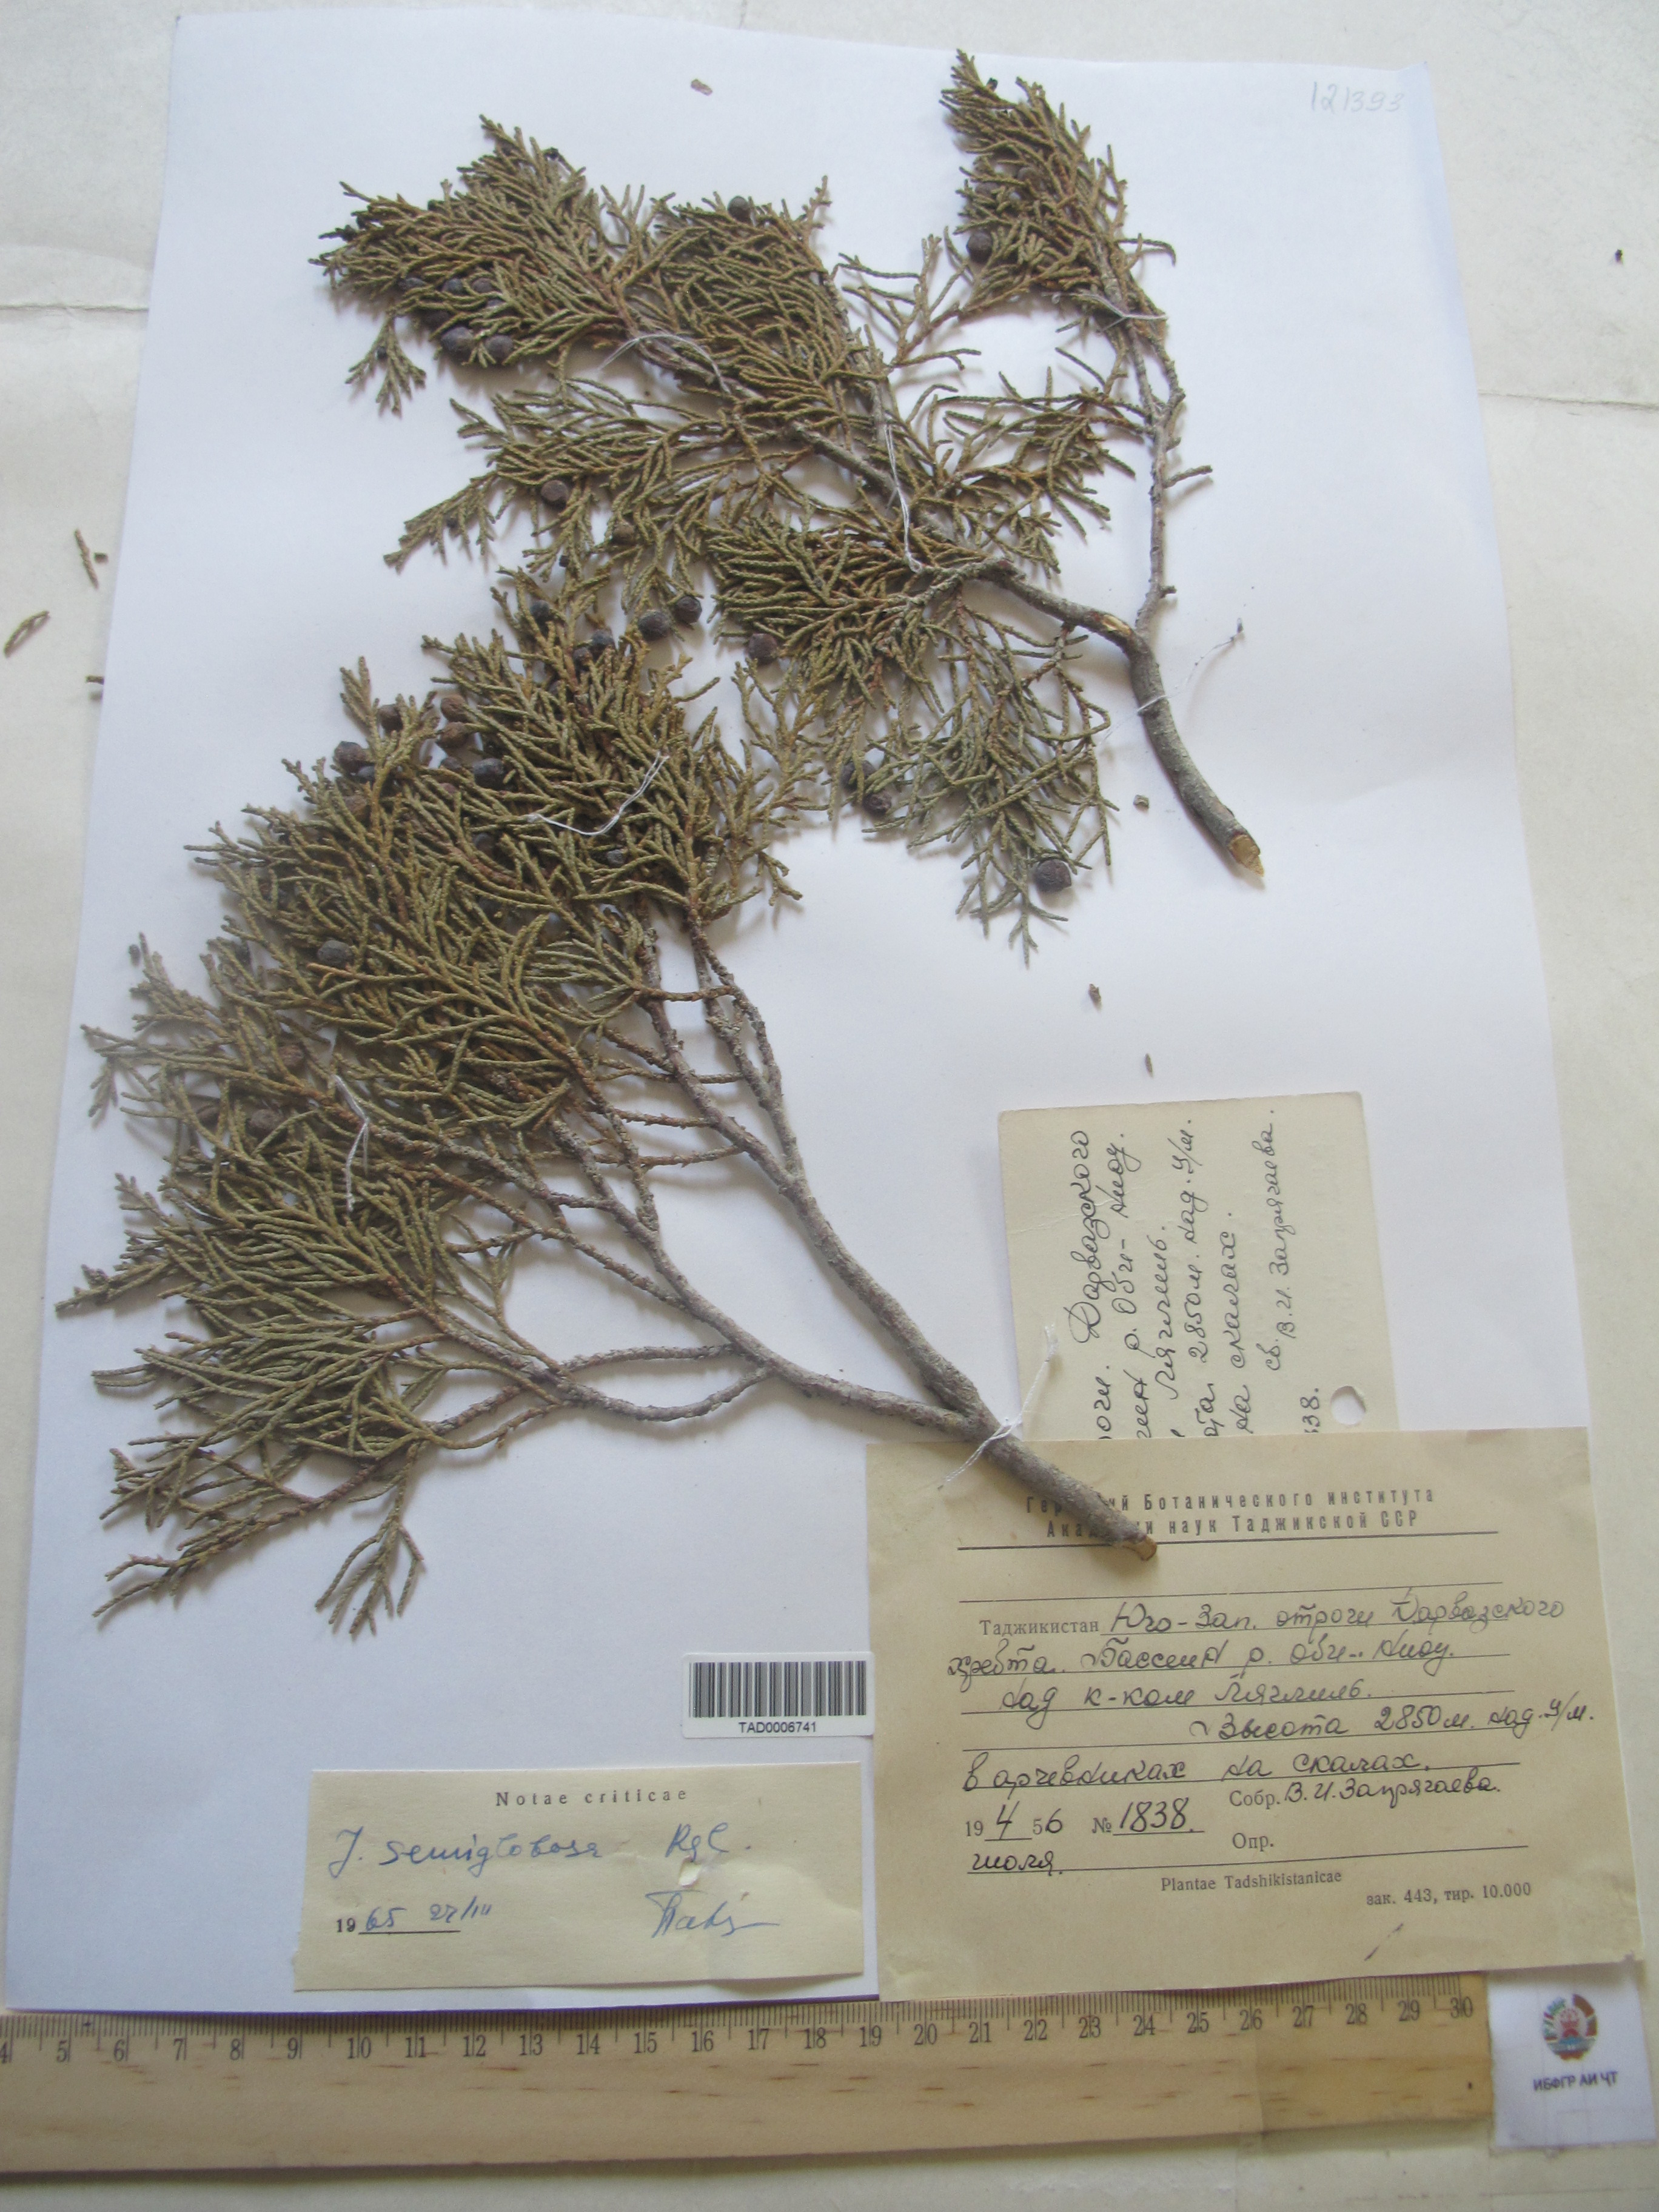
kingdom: Plantae
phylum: Tracheophyta
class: Pinopsida
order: Pinales
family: Cupressaceae
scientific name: Cupressaceae
